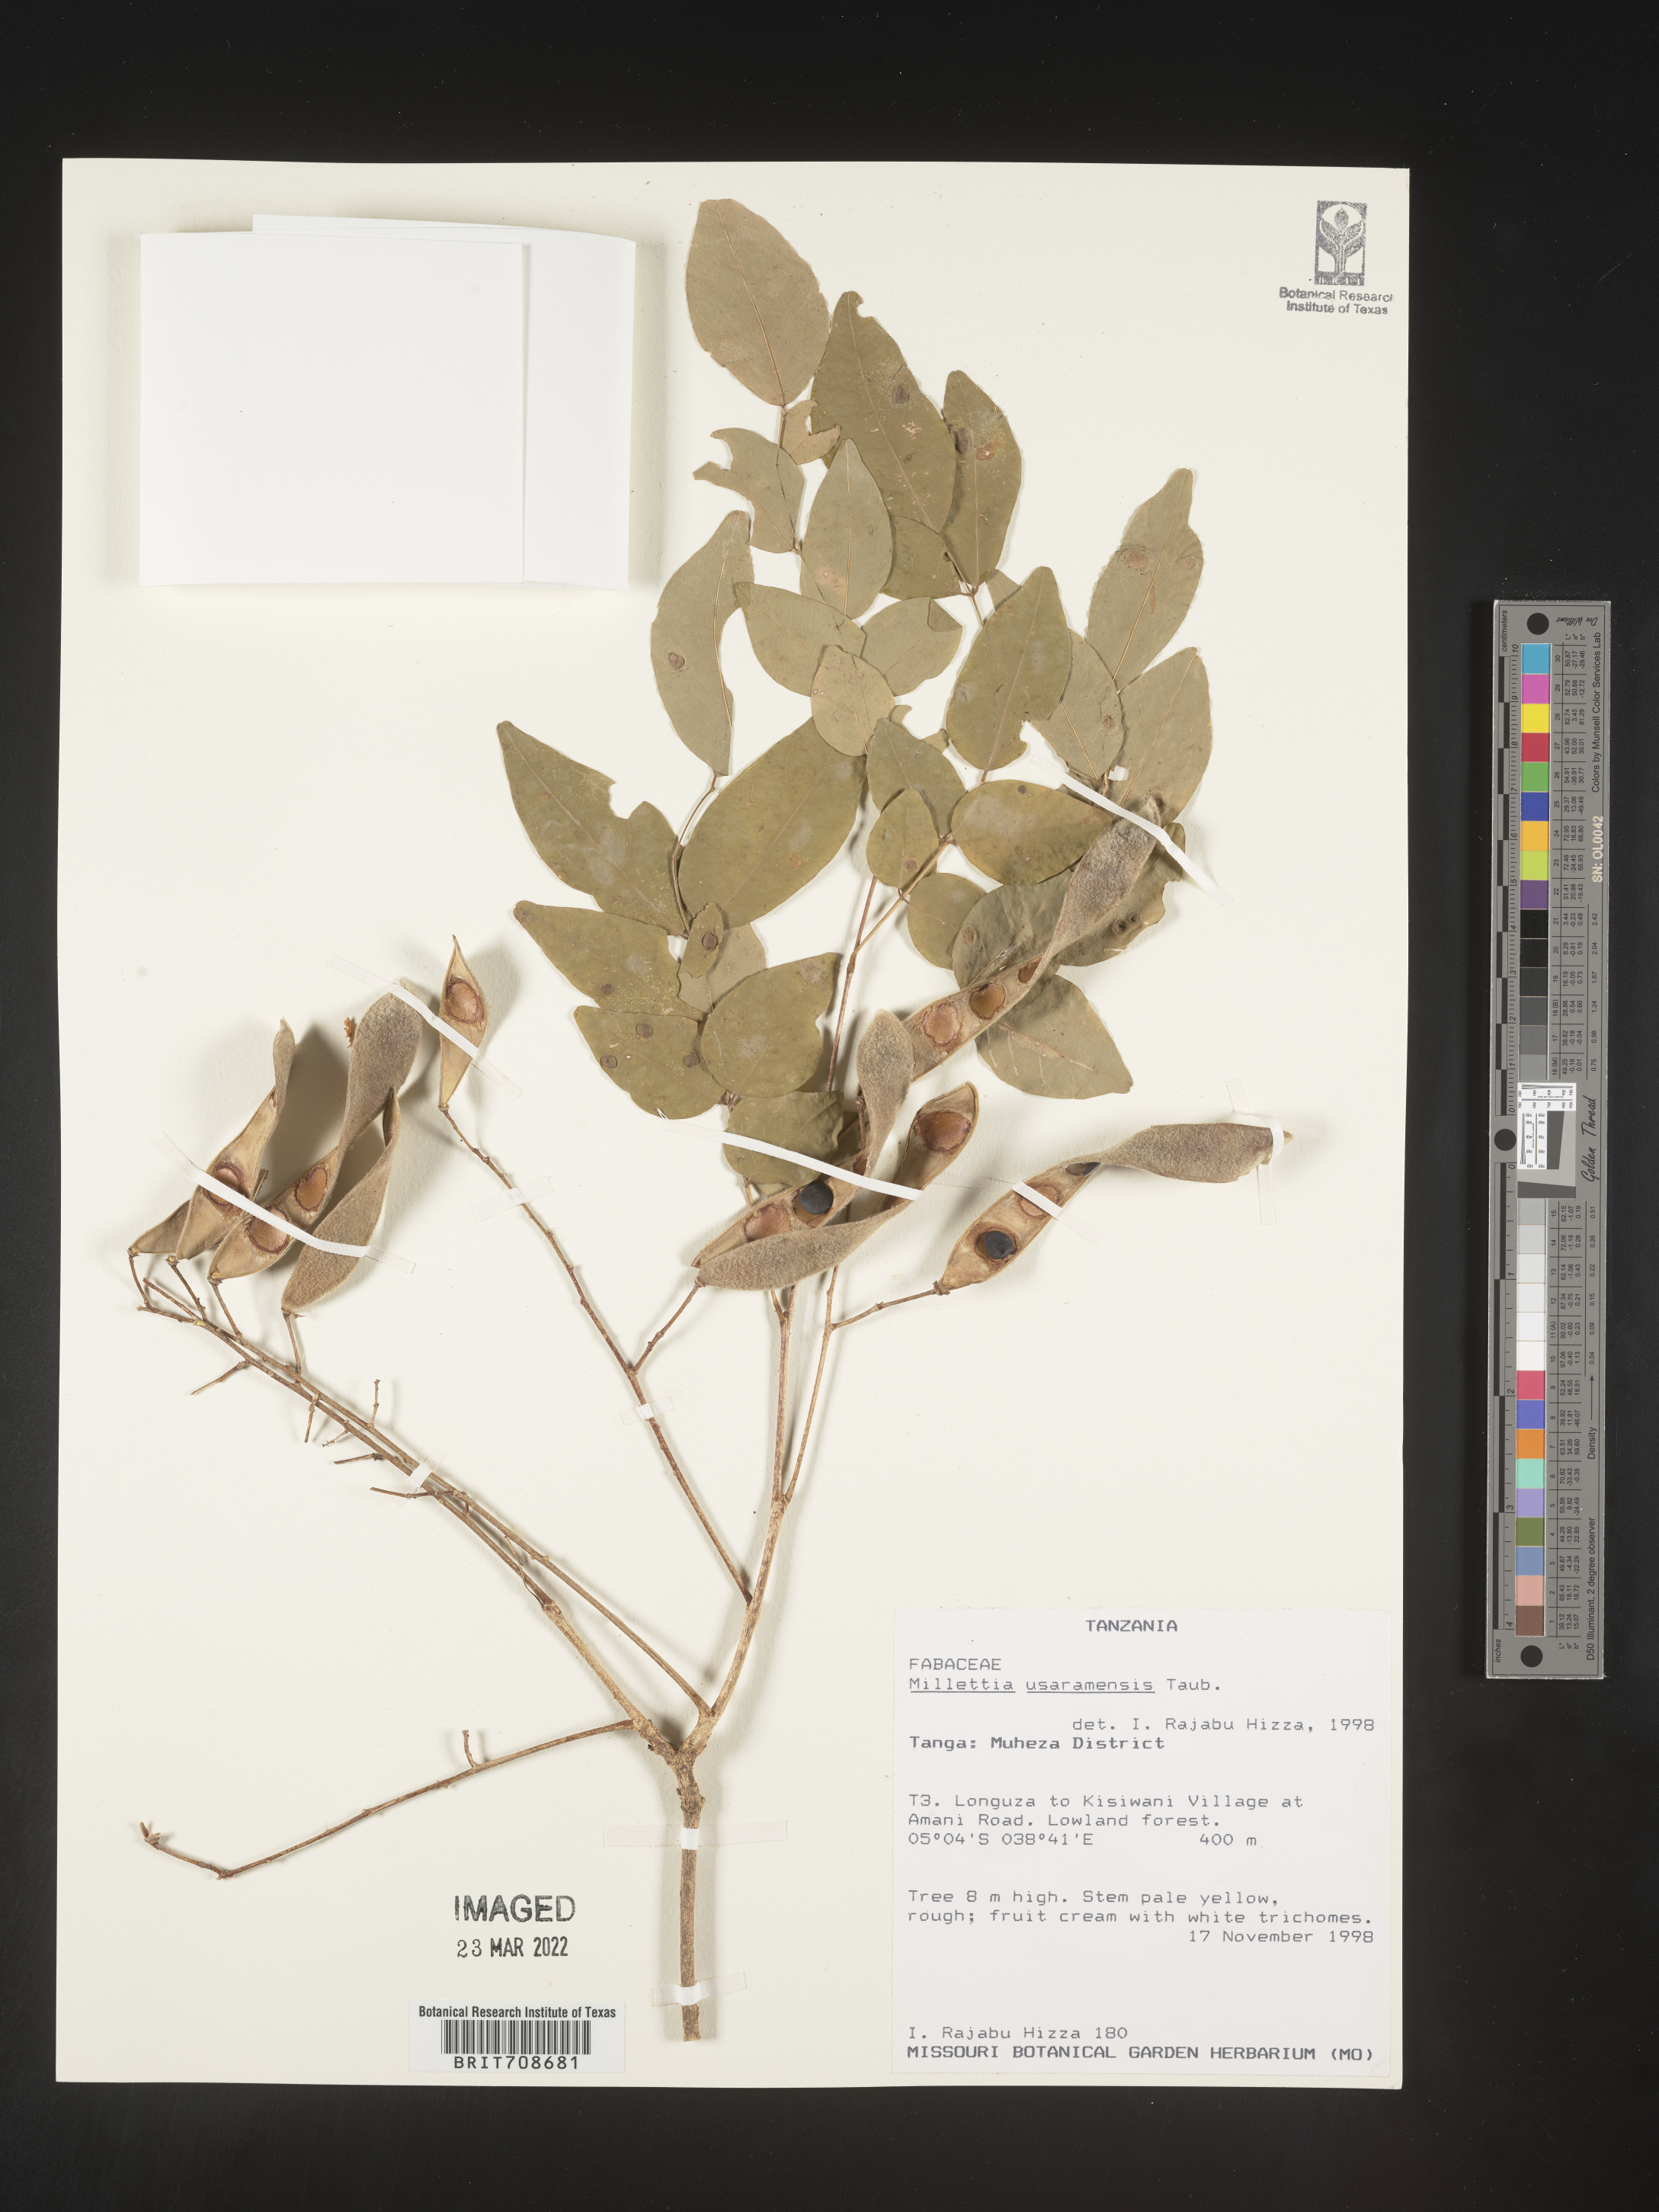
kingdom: Plantae
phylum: Tracheophyta
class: Magnoliopsida
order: Fabales
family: Fabaceae
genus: Millettia
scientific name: Millettia
